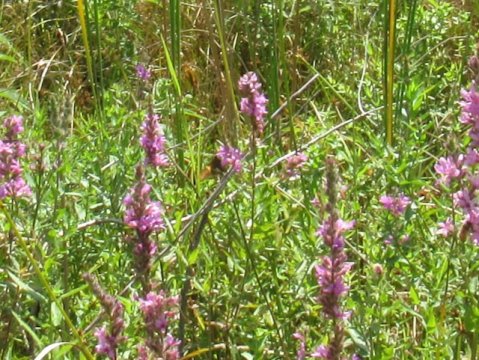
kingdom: Animalia
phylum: Arthropoda
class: Insecta
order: Lepidoptera
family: Hesperiidae
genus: Epargyreus
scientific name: Epargyreus clarus
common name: Silver-spotted Skipper
